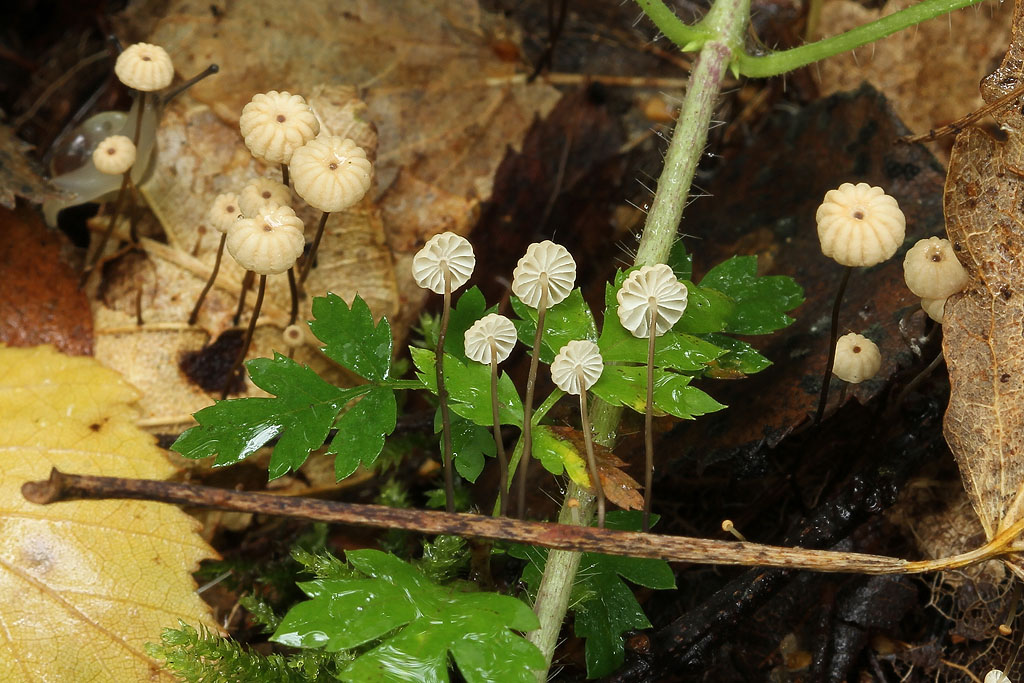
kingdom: Fungi
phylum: Basidiomycota
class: Agaricomycetes
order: Agaricales
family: Marasmiaceae
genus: Marasmius
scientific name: Marasmius bulliardii
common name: furet bruskhat
